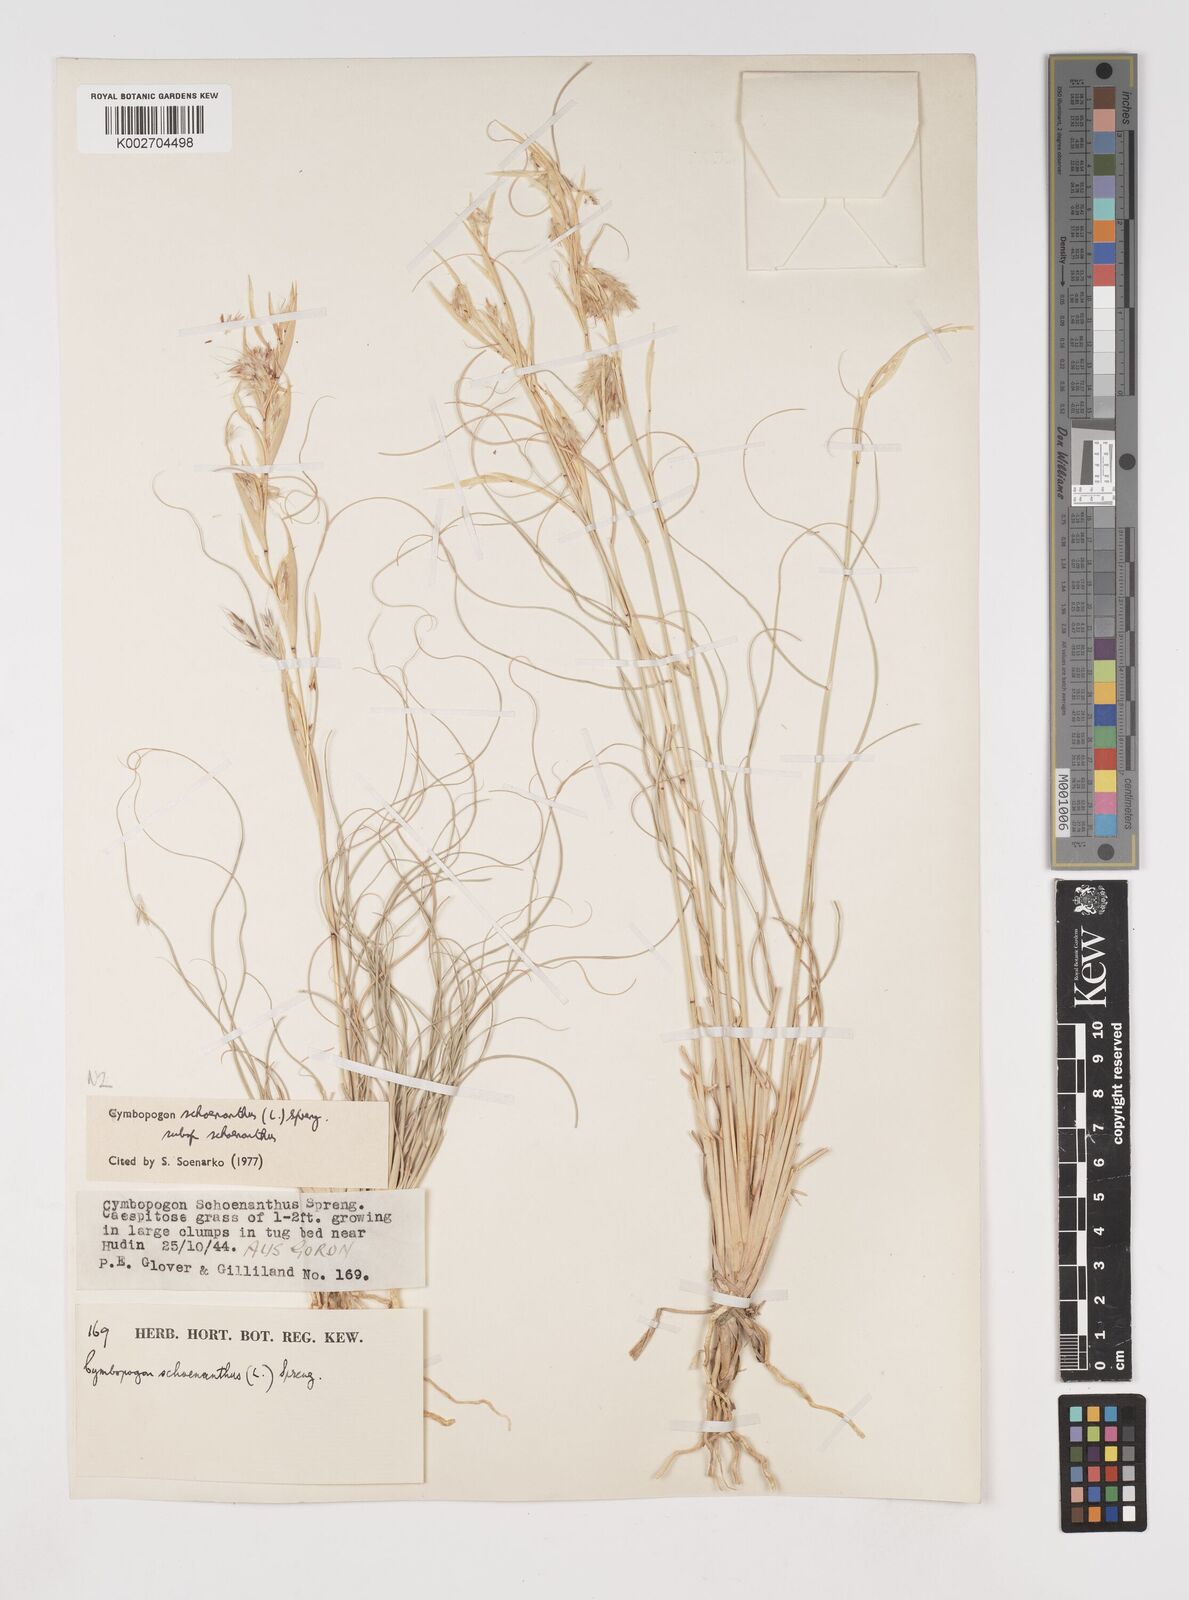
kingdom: Plantae
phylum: Tracheophyta
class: Liliopsida
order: Poales
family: Poaceae
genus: Cymbopogon
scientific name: Cymbopogon schoenanthus
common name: Geranium grass
